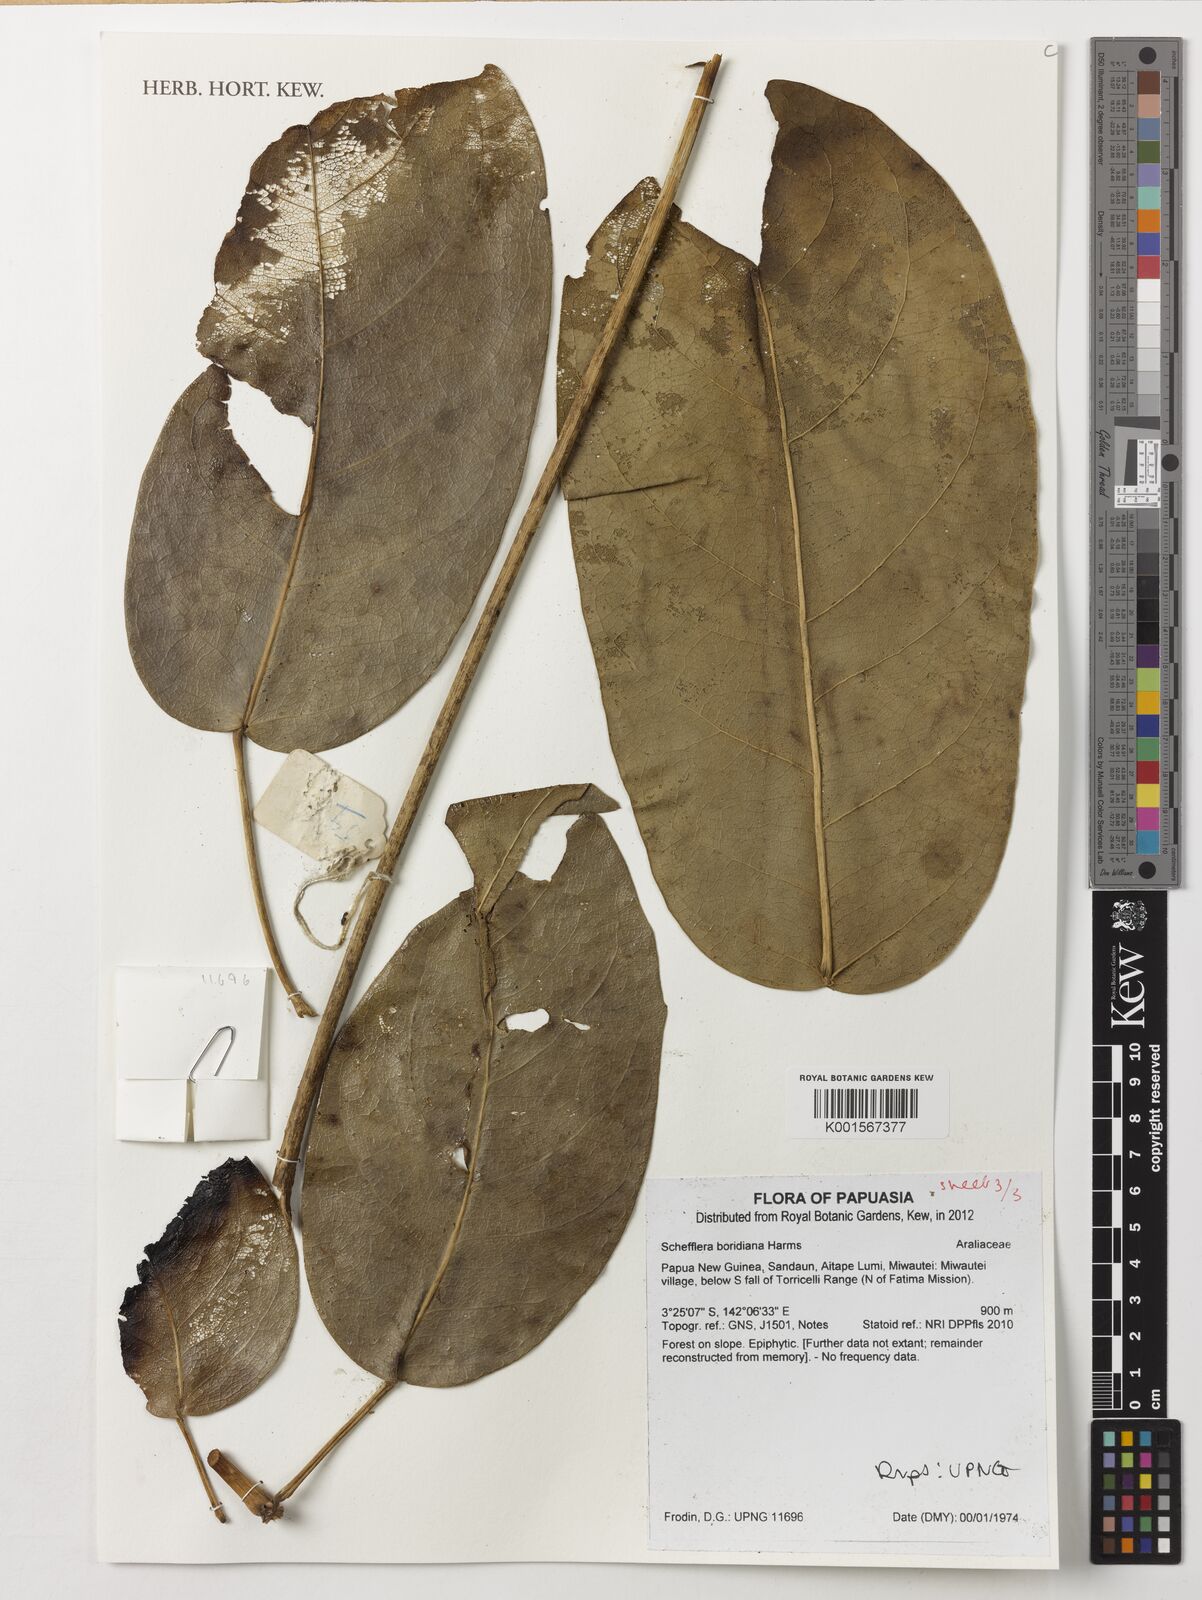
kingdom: Plantae
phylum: Tracheophyta
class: Magnoliopsida
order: Apiales
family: Araliaceae
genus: Heptapleurum
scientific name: Heptapleurum boridianum
